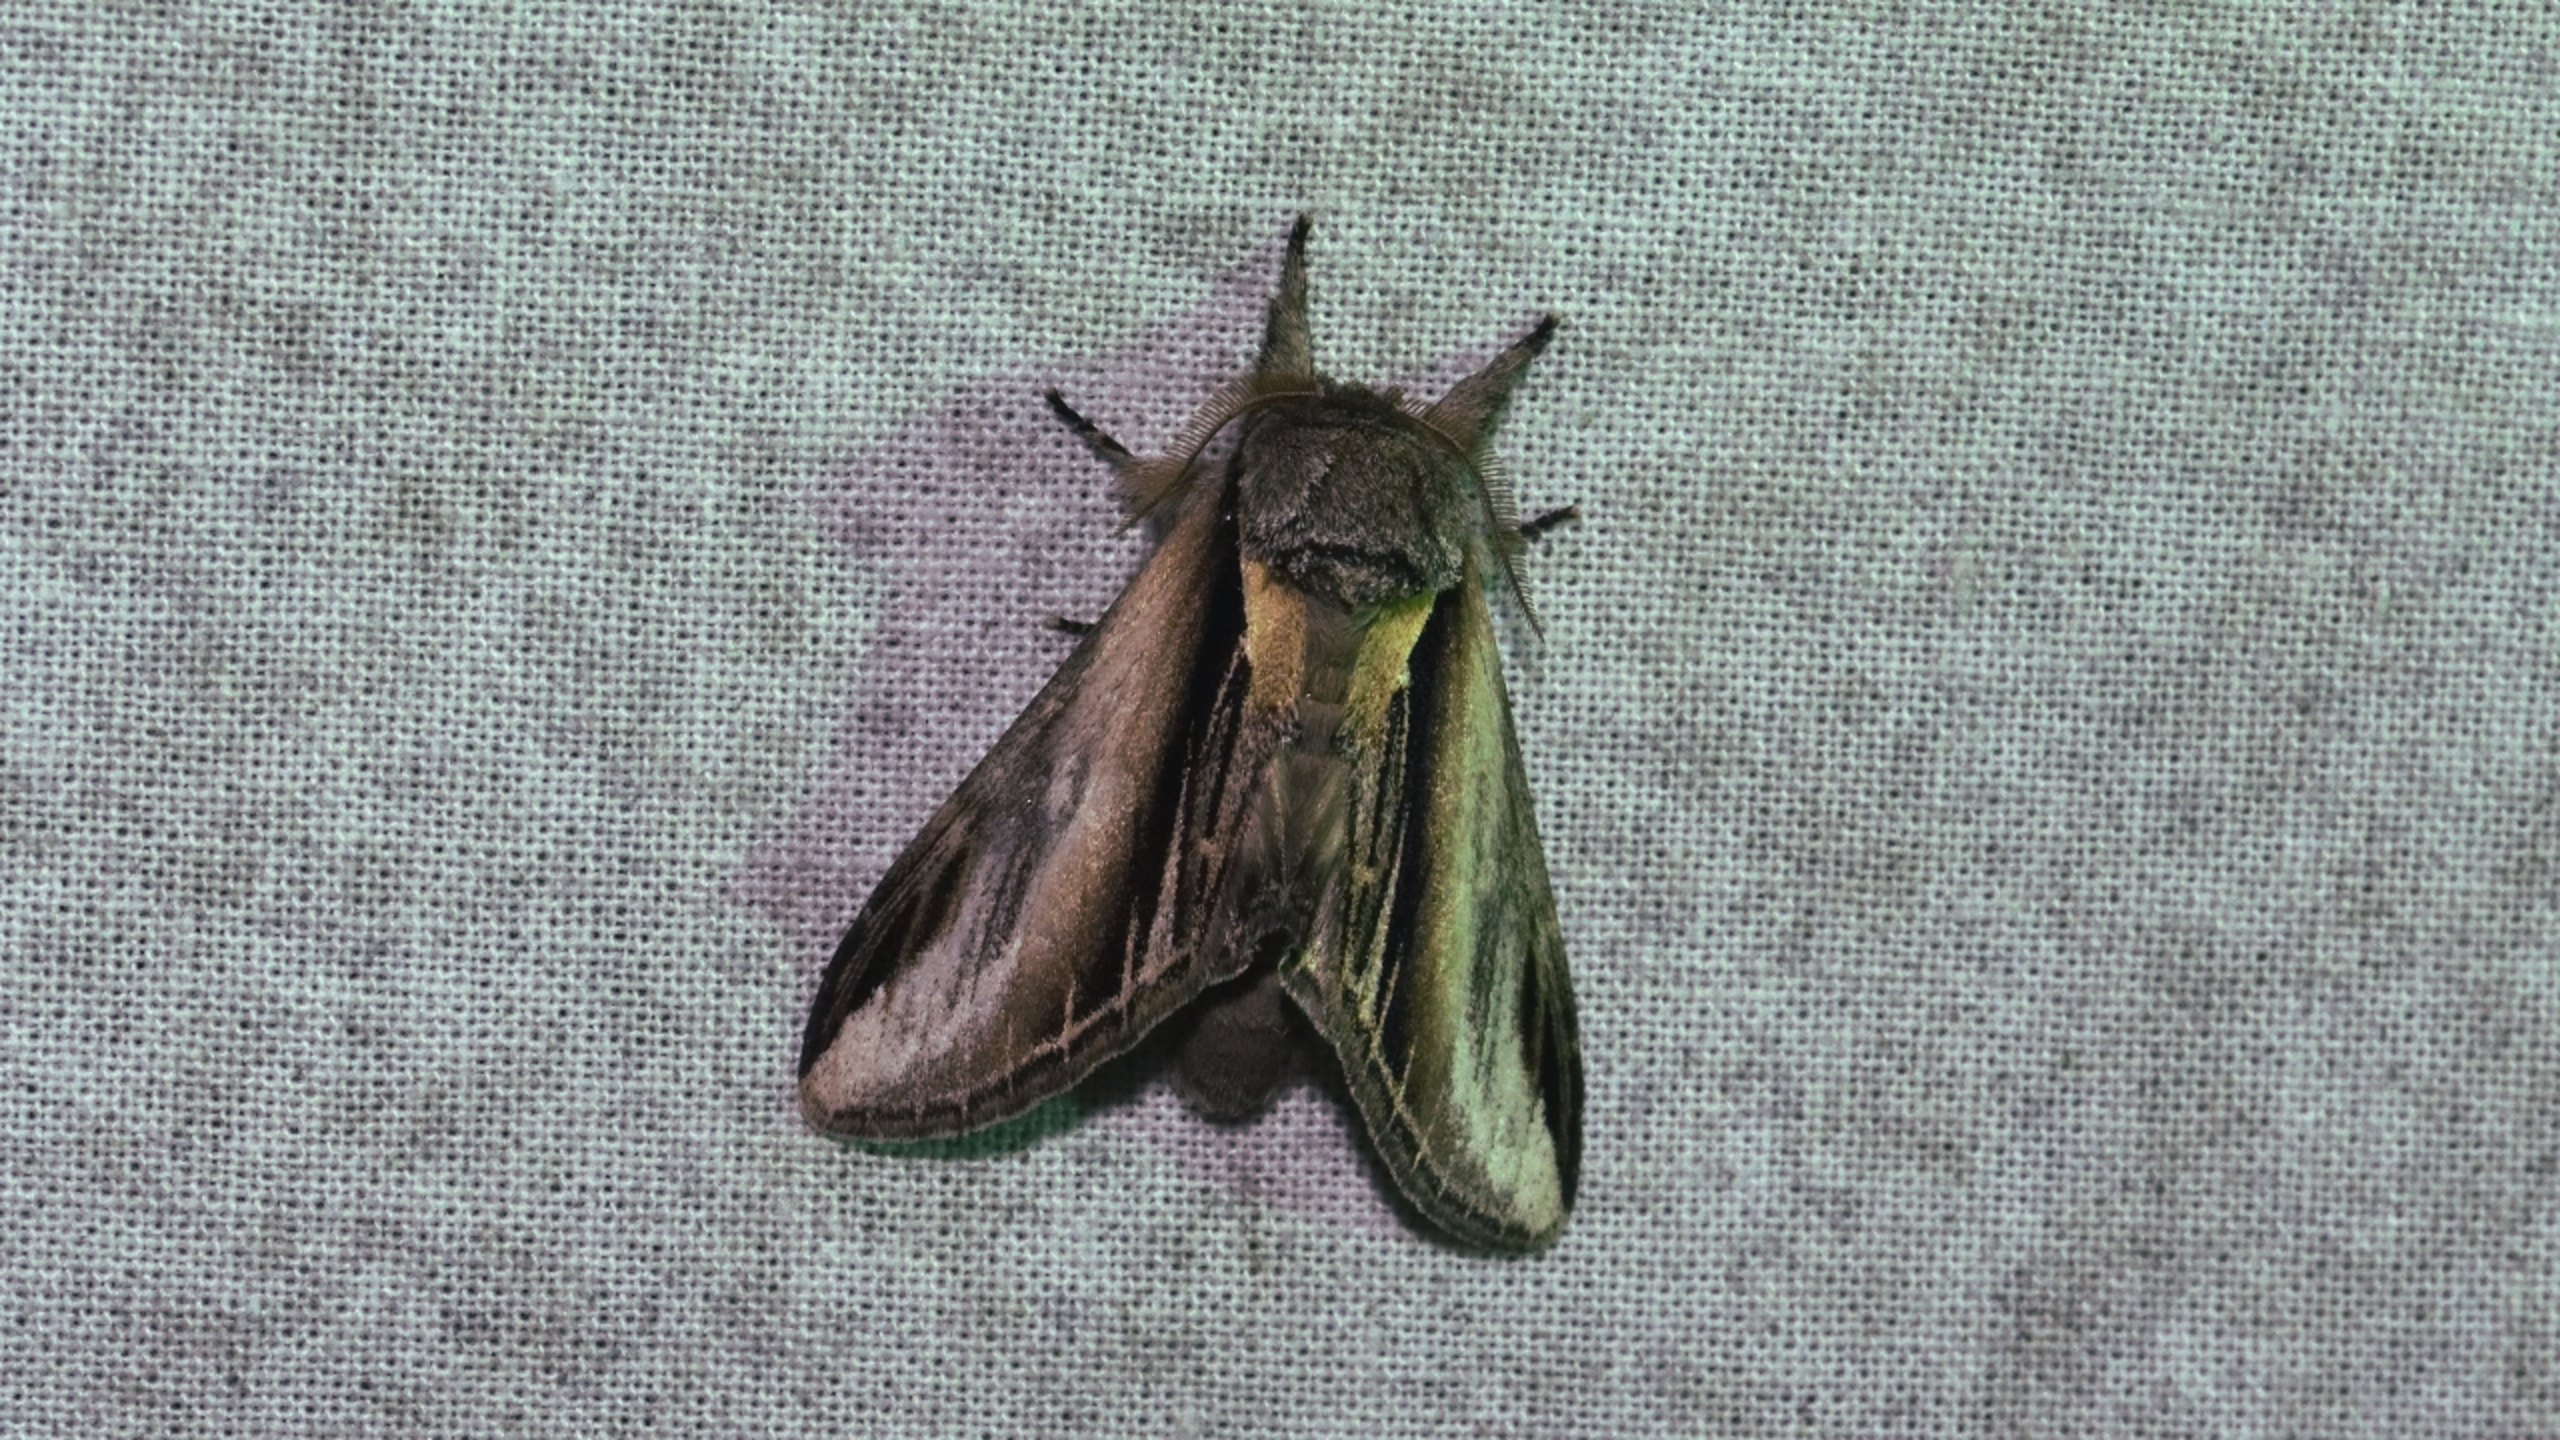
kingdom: Animalia
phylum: Arthropoda
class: Insecta
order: Lepidoptera
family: Notodontidae
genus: Pheosia
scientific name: Pheosia tremula
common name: Poppelporcelænsspinder
